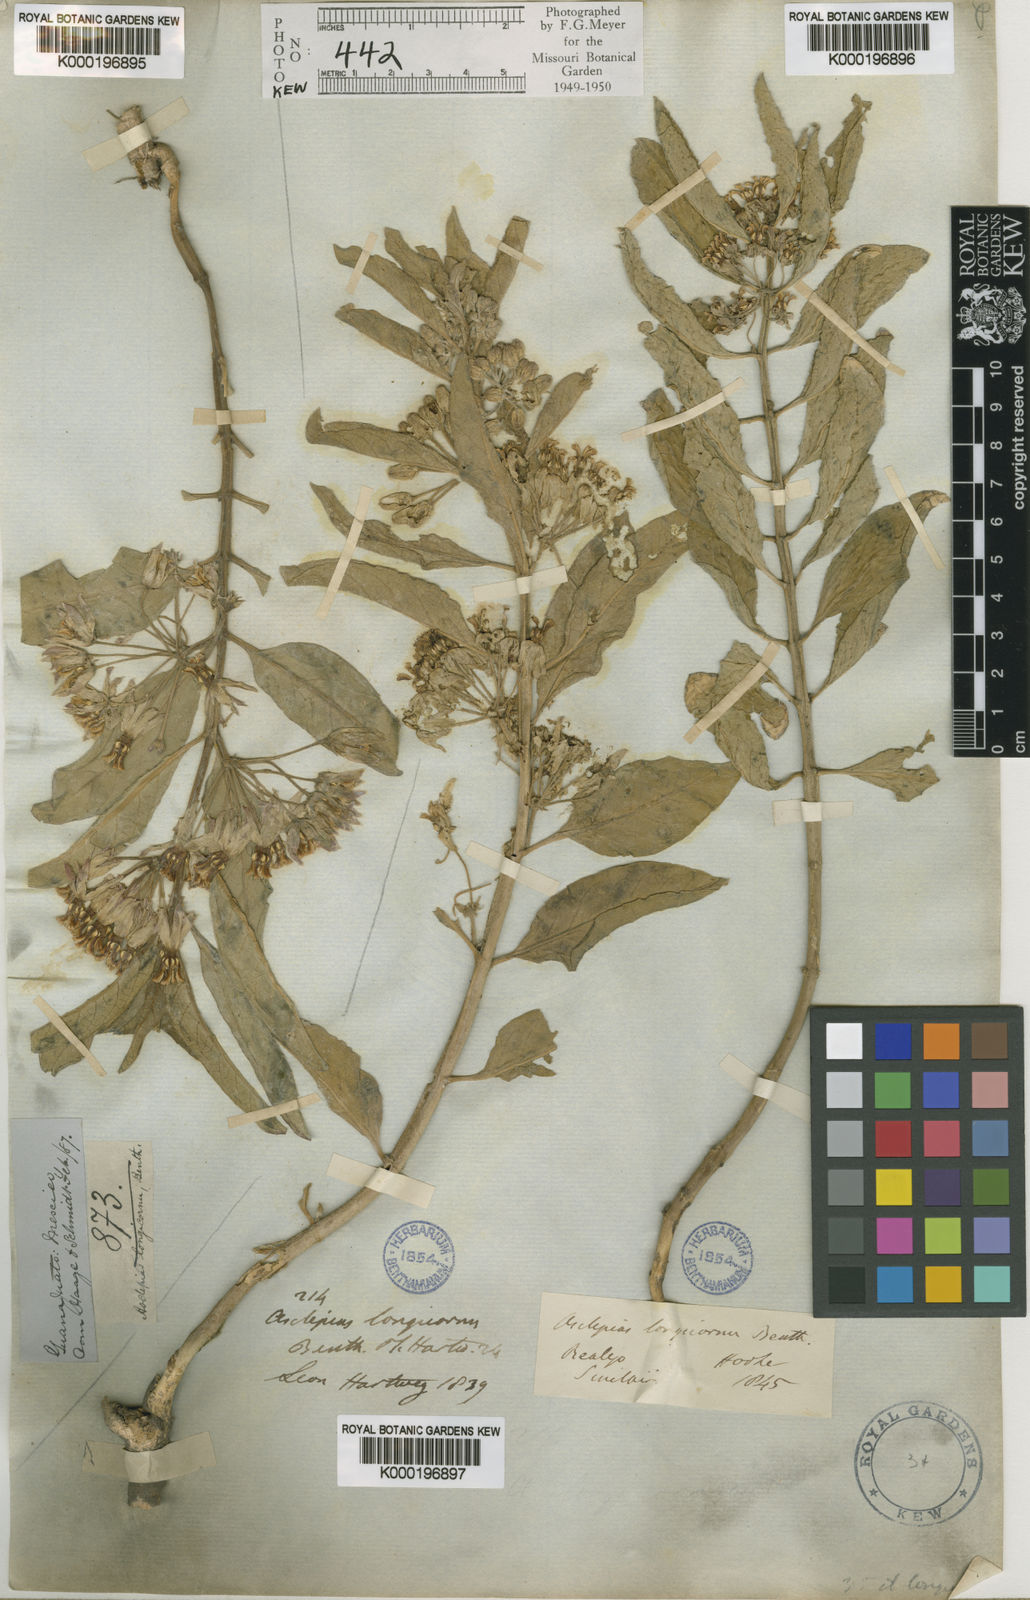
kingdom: Plantae
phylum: Tracheophyta
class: Magnoliopsida
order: Gentianales
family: Apocynaceae
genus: Asclepias
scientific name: Asclepias oenotheroides
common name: Zizotes milkweed
